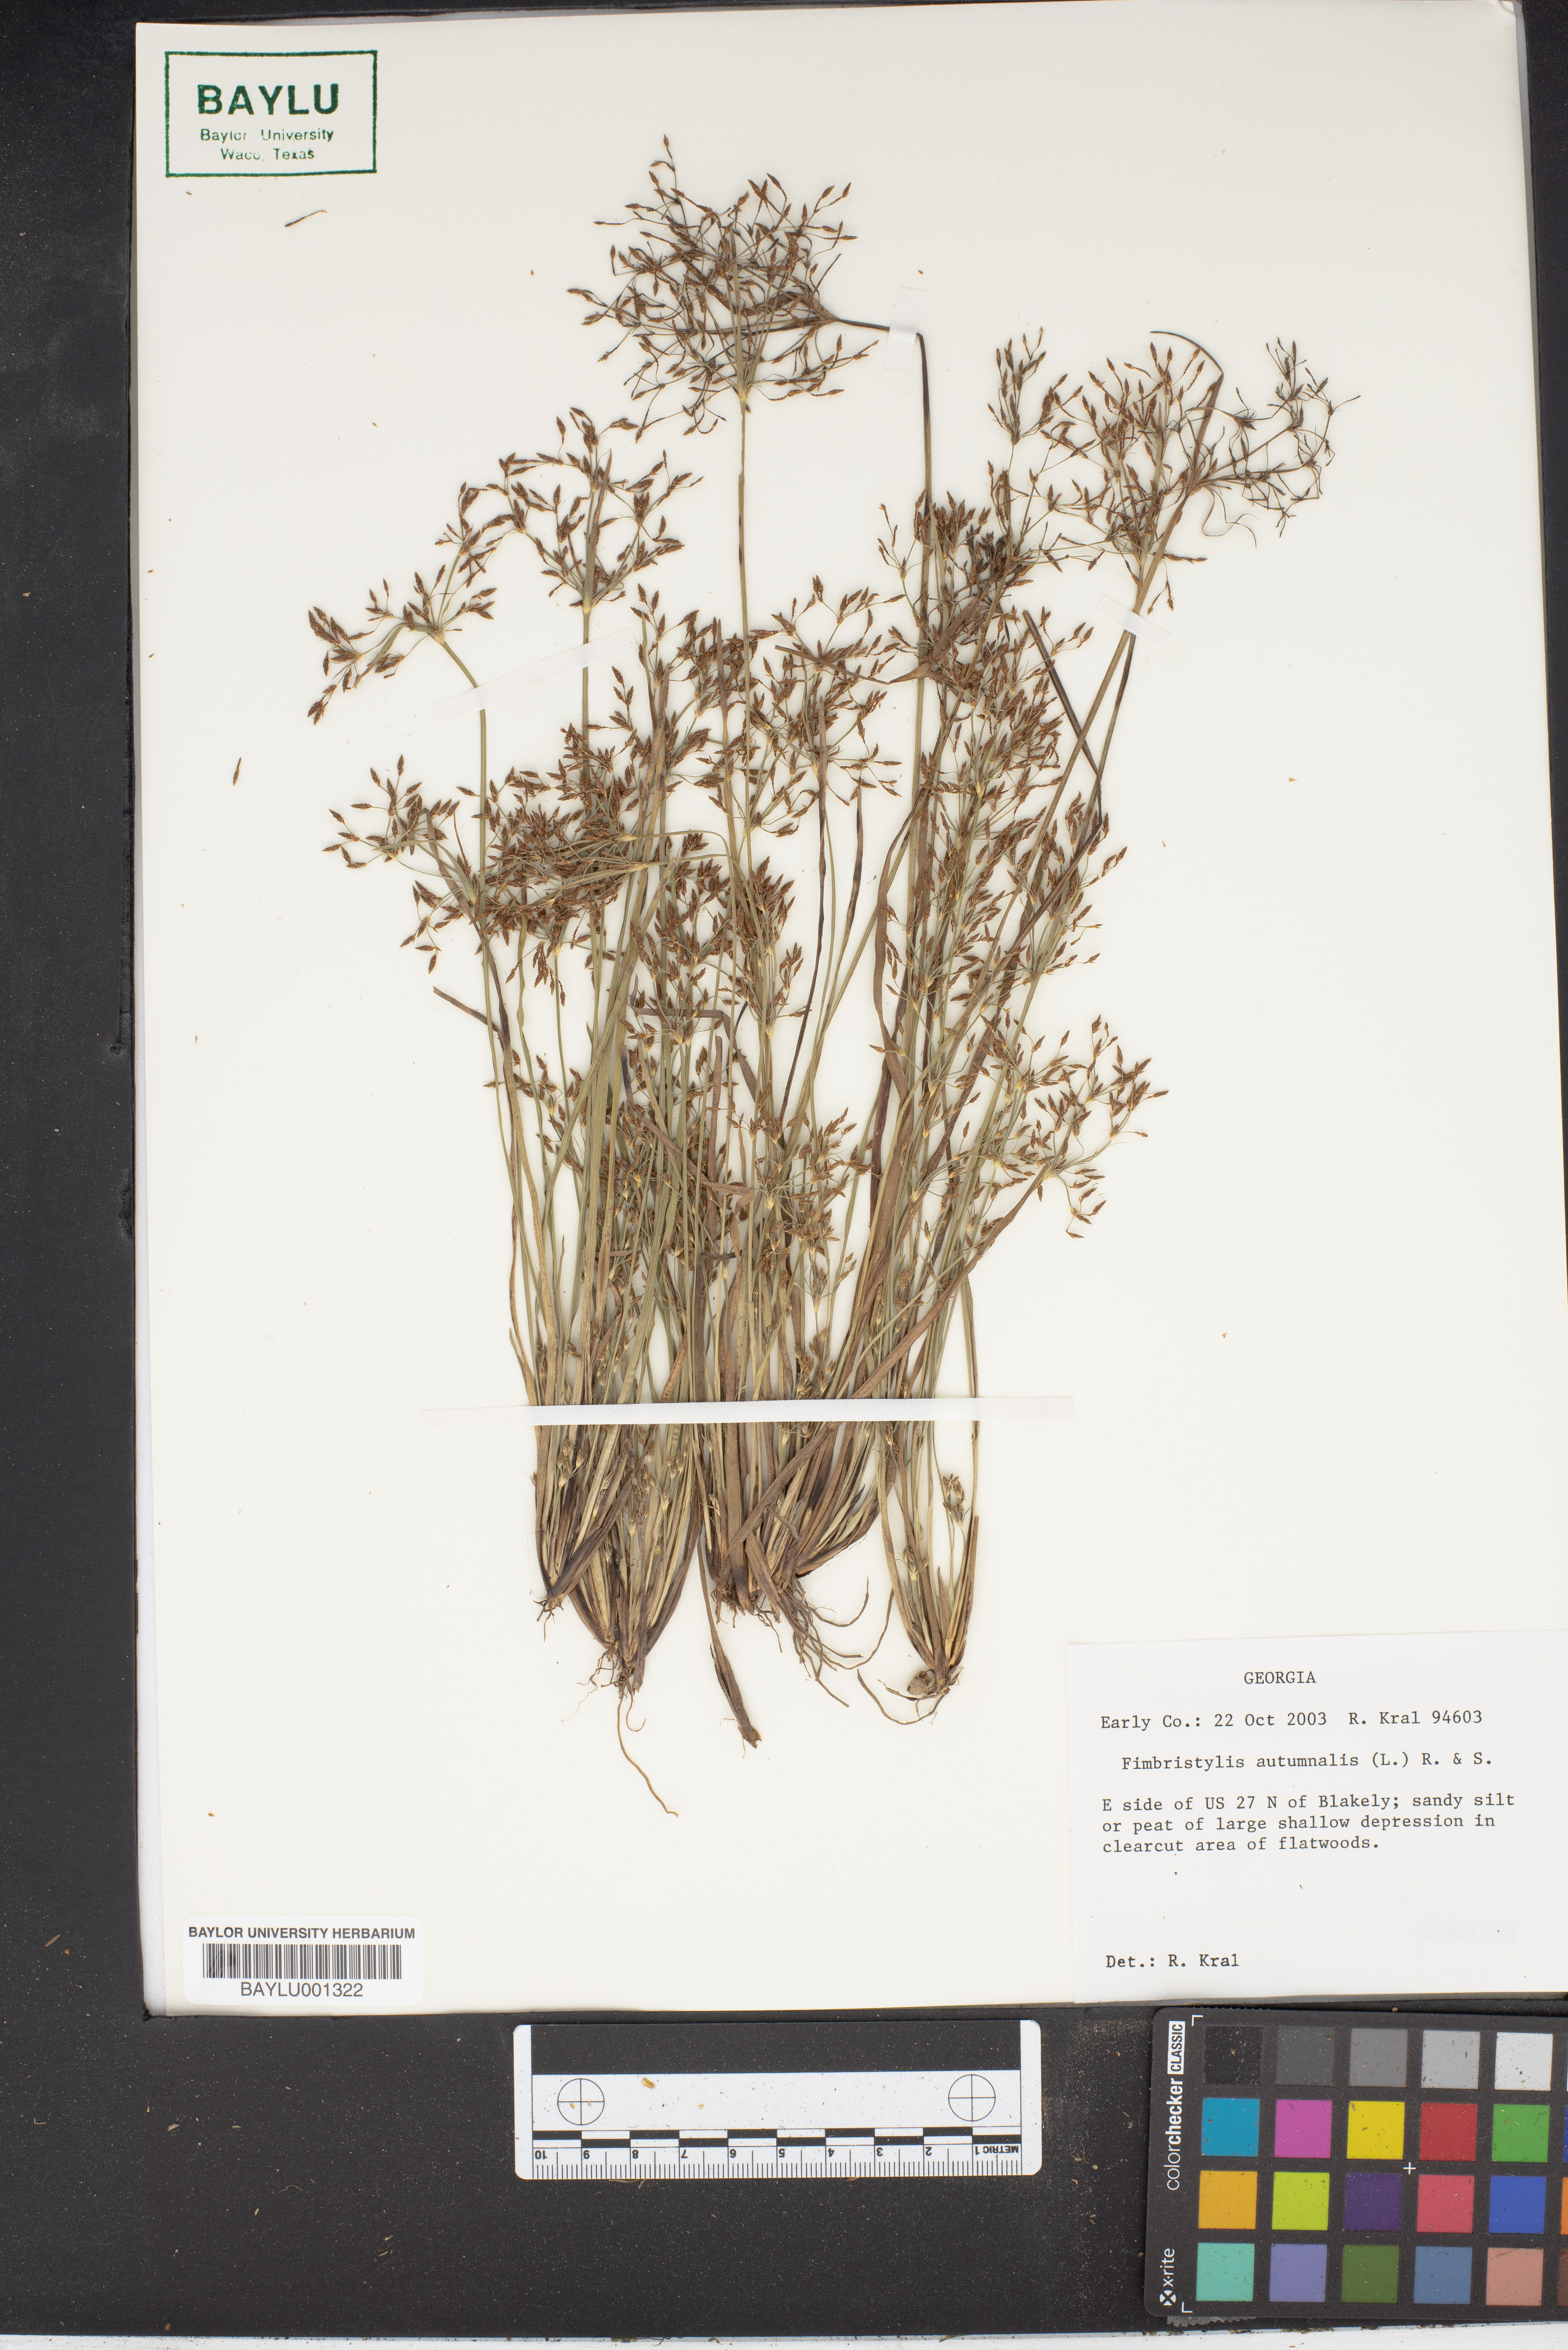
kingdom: Plantae
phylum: Tracheophyta
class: Liliopsida
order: Poales
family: Cyperaceae
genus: Fimbristylis
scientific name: Fimbristylis autumnalis
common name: Slender fimbristylis
